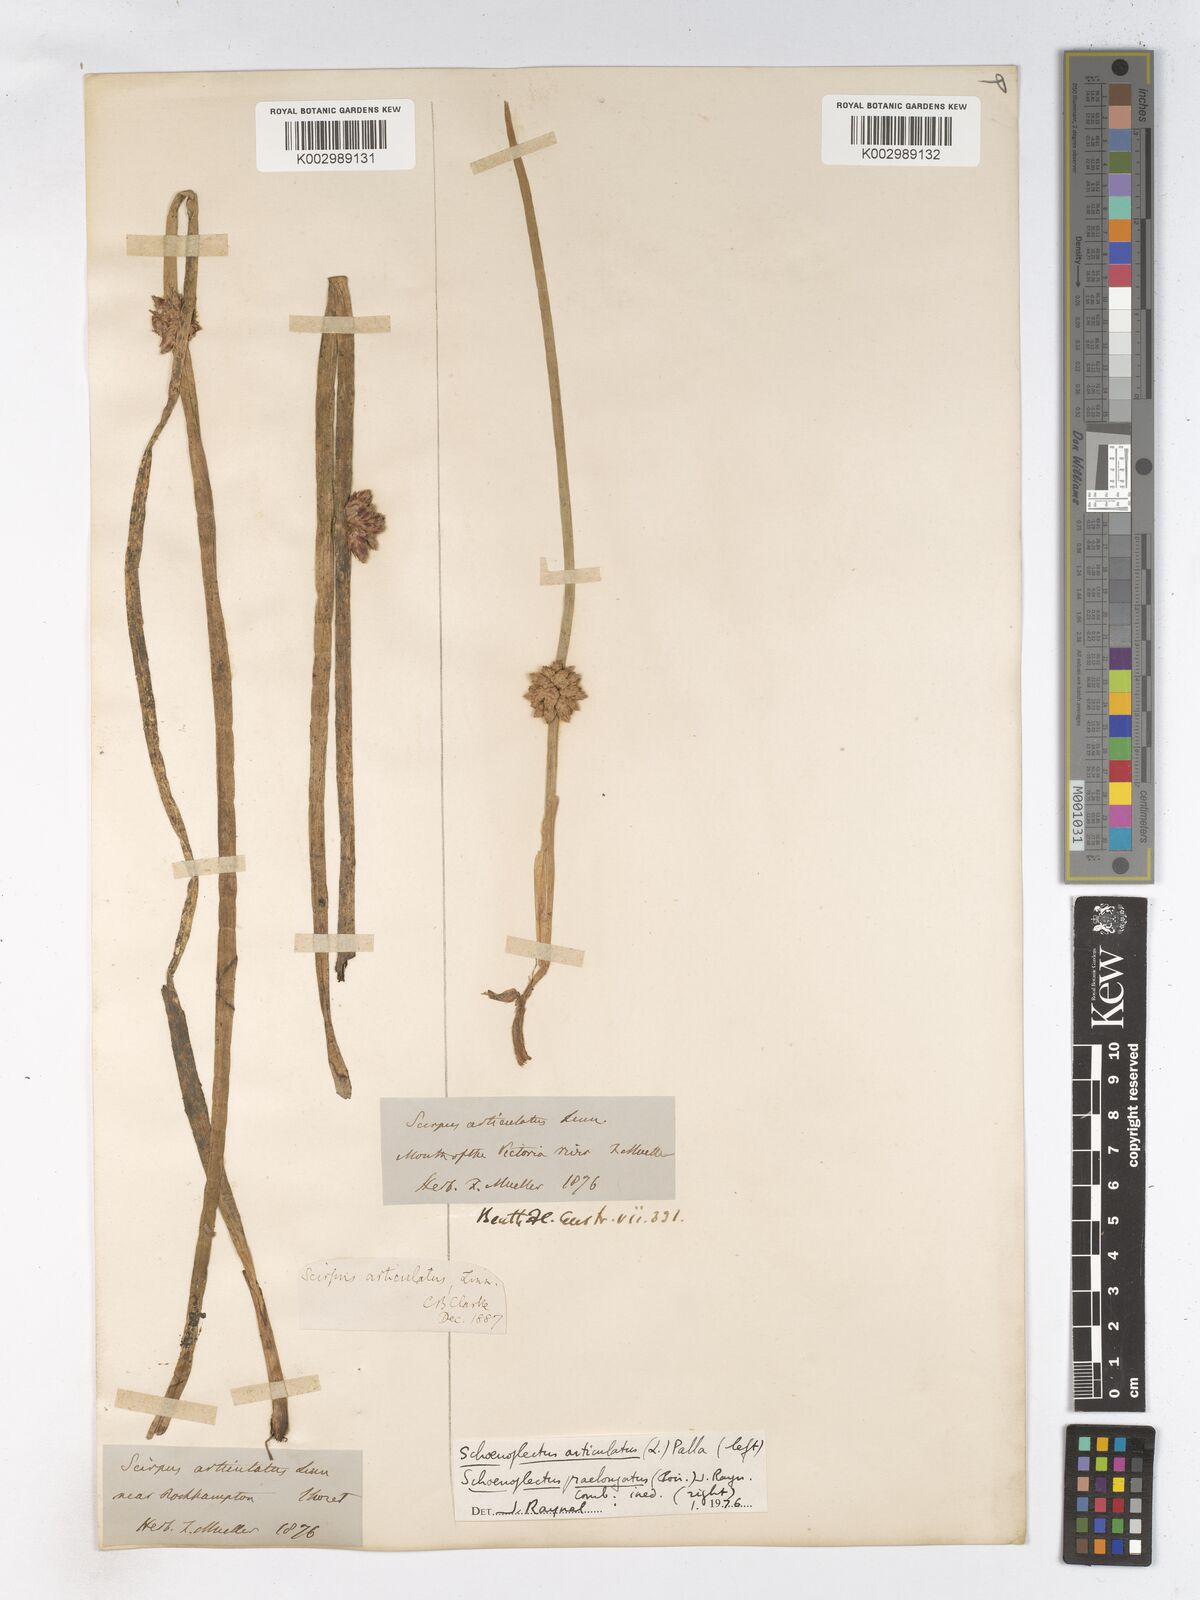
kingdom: Plantae
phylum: Tracheophyta
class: Liliopsida
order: Poales
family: Cyperaceae
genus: Schoenoplectiella
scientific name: Schoenoplectiella articulata
